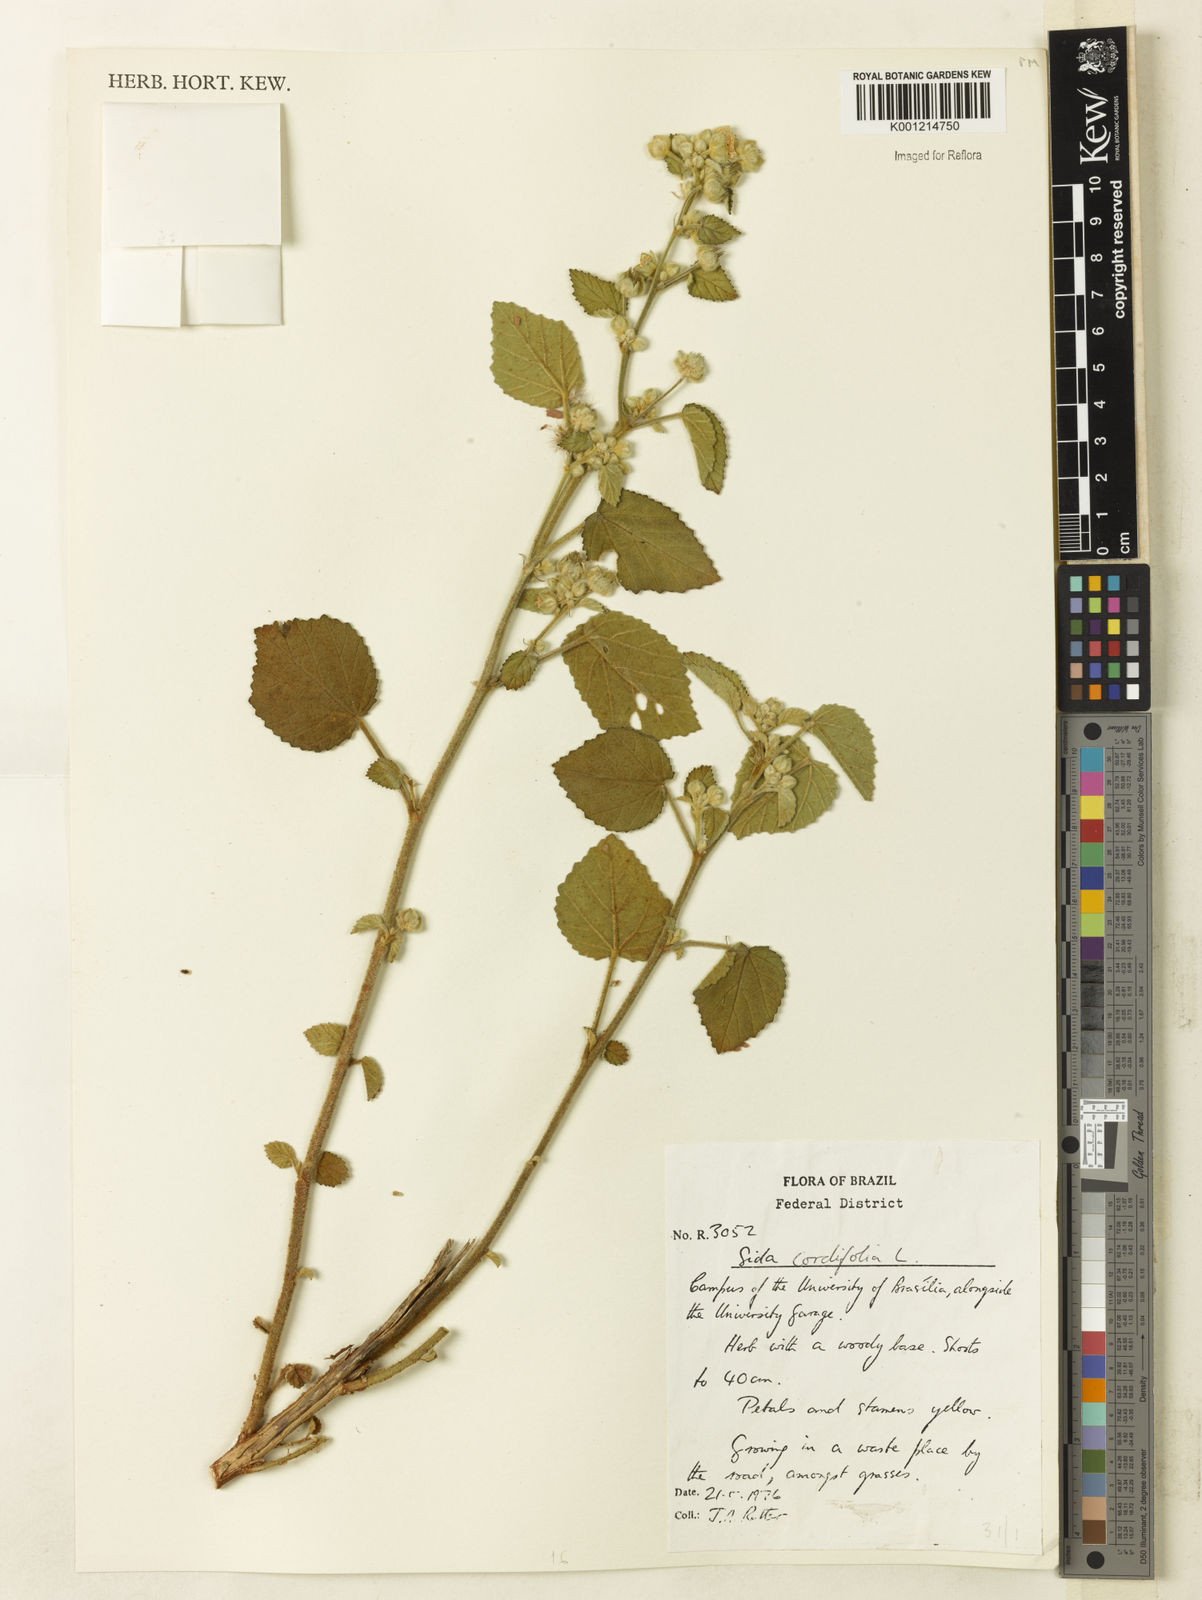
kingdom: Plantae
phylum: Tracheophyta
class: Magnoliopsida
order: Malvales
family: Malvaceae
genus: Sida
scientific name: Sida cordifolia
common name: Ilima
